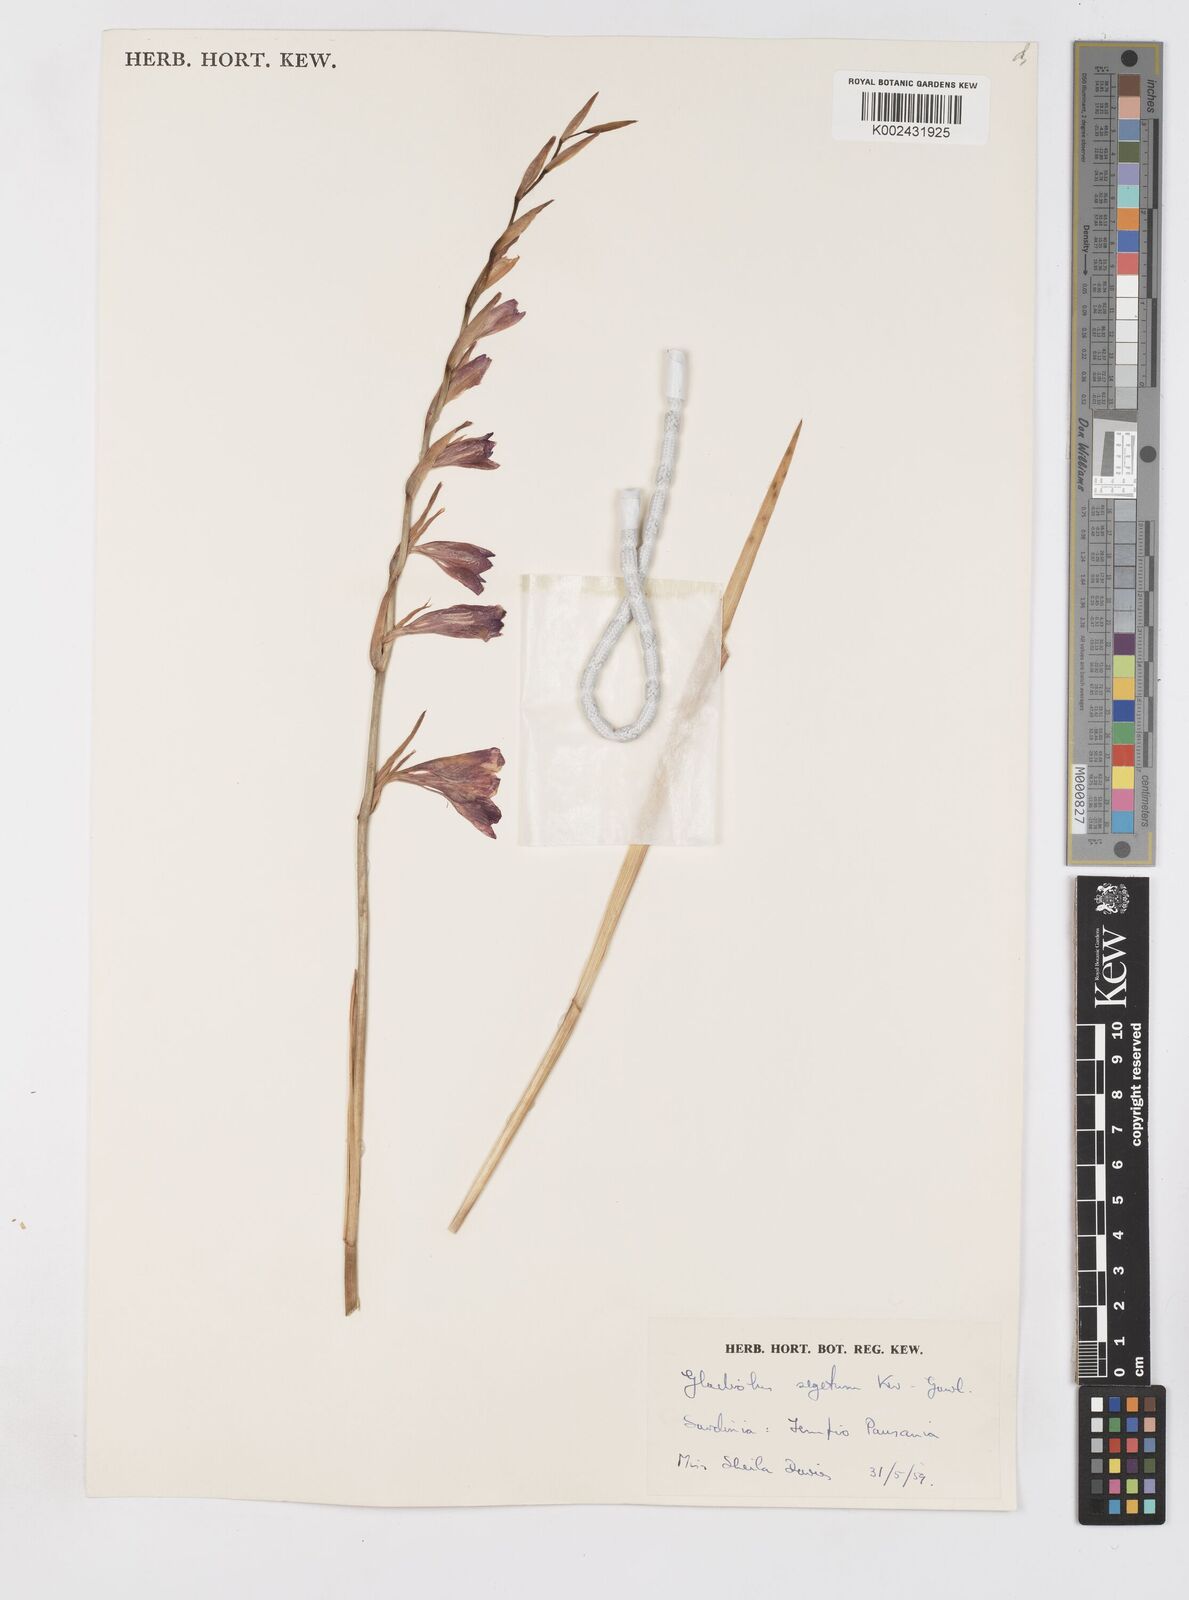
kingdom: Plantae
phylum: Tracheophyta
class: Liliopsida
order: Asparagales
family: Iridaceae
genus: Gladiolus
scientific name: Gladiolus italicus
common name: Field gladiolus
